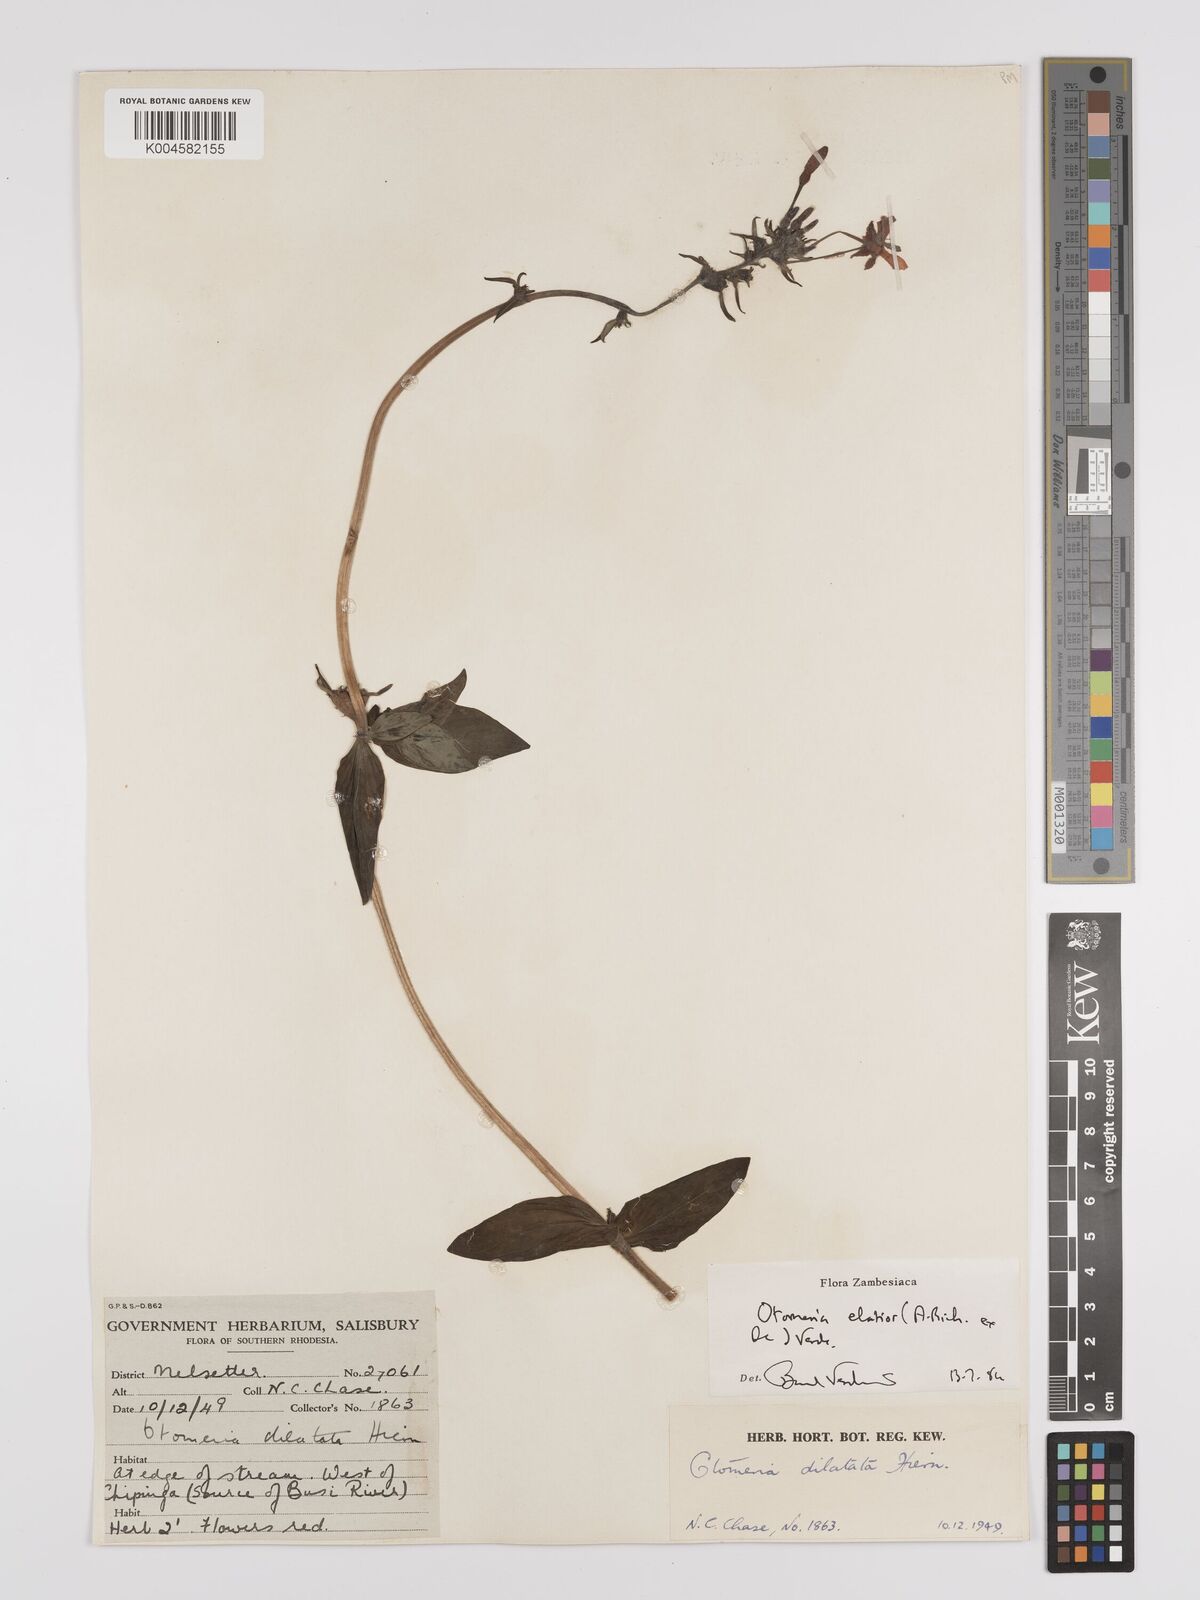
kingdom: Plantae
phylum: Tracheophyta
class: Magnoliopsida
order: Gentianales
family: Rubiaceae
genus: Otomeria
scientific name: Otomeria elatior
